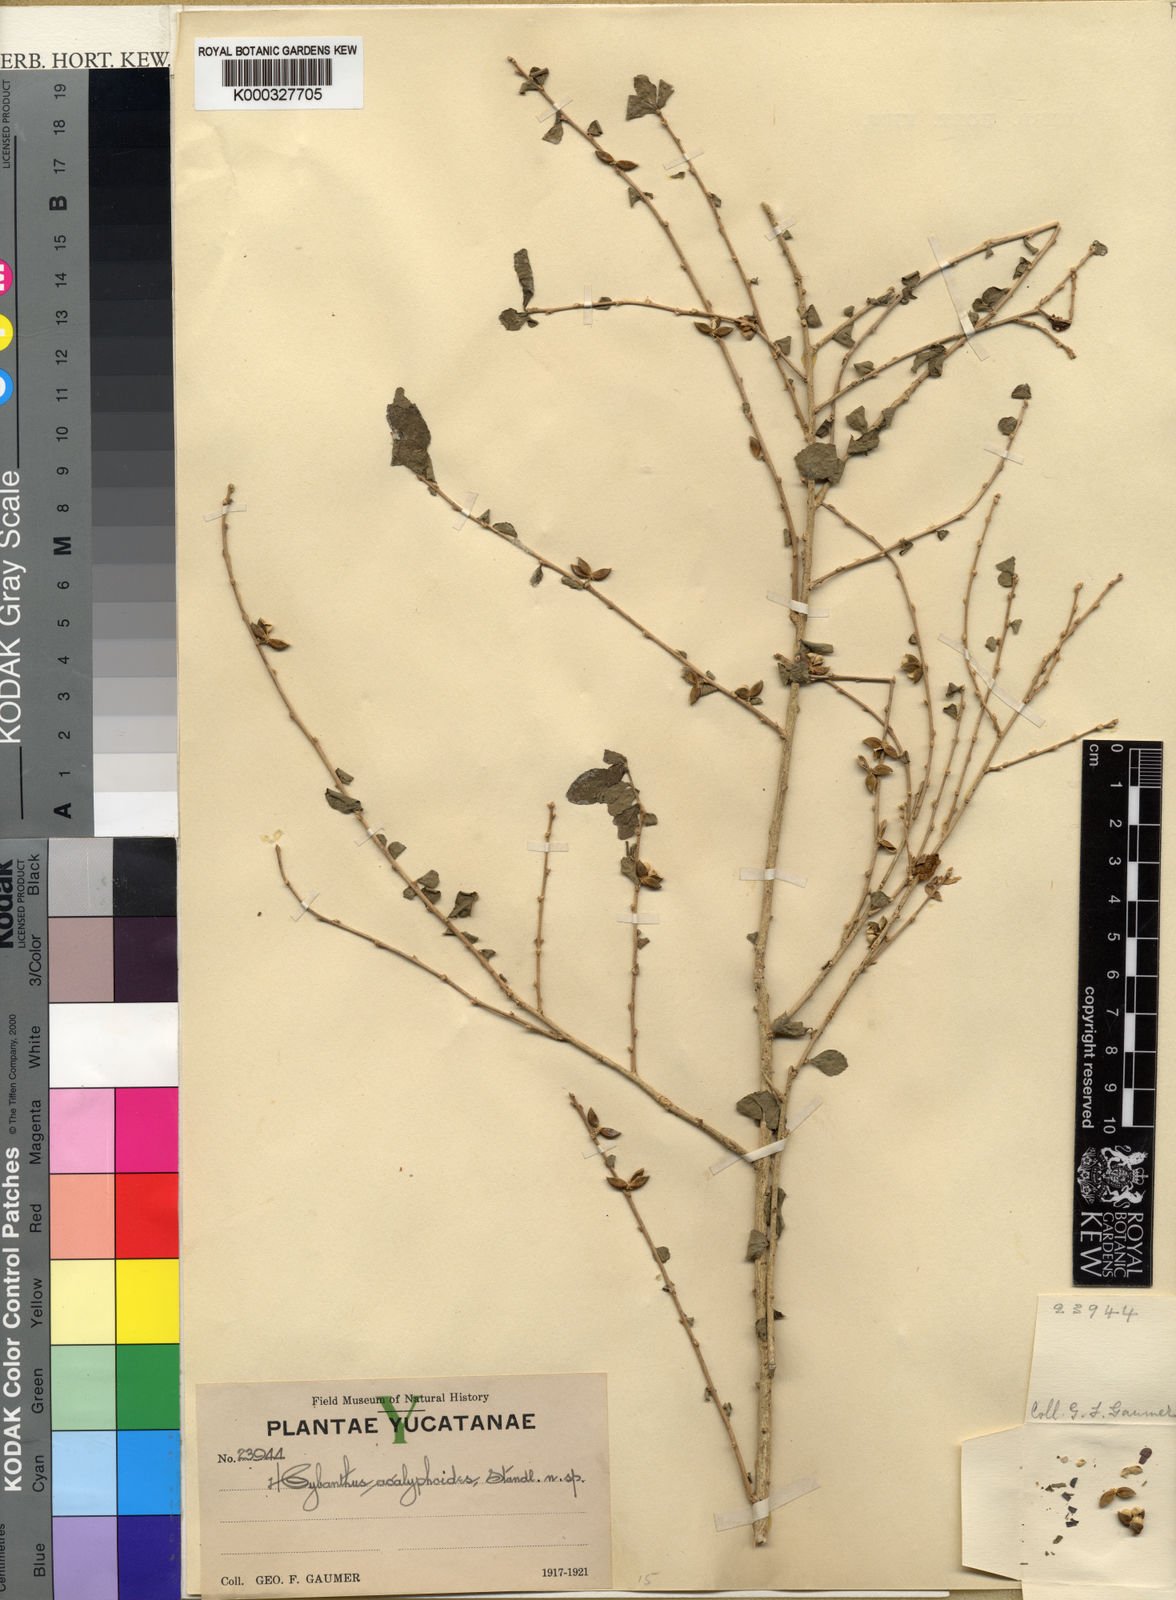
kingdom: Plantae
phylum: Tracheophyta
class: Magnoliopsida
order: Malpighiales
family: Violaceae
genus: Hybanthus
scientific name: Hybanthus
